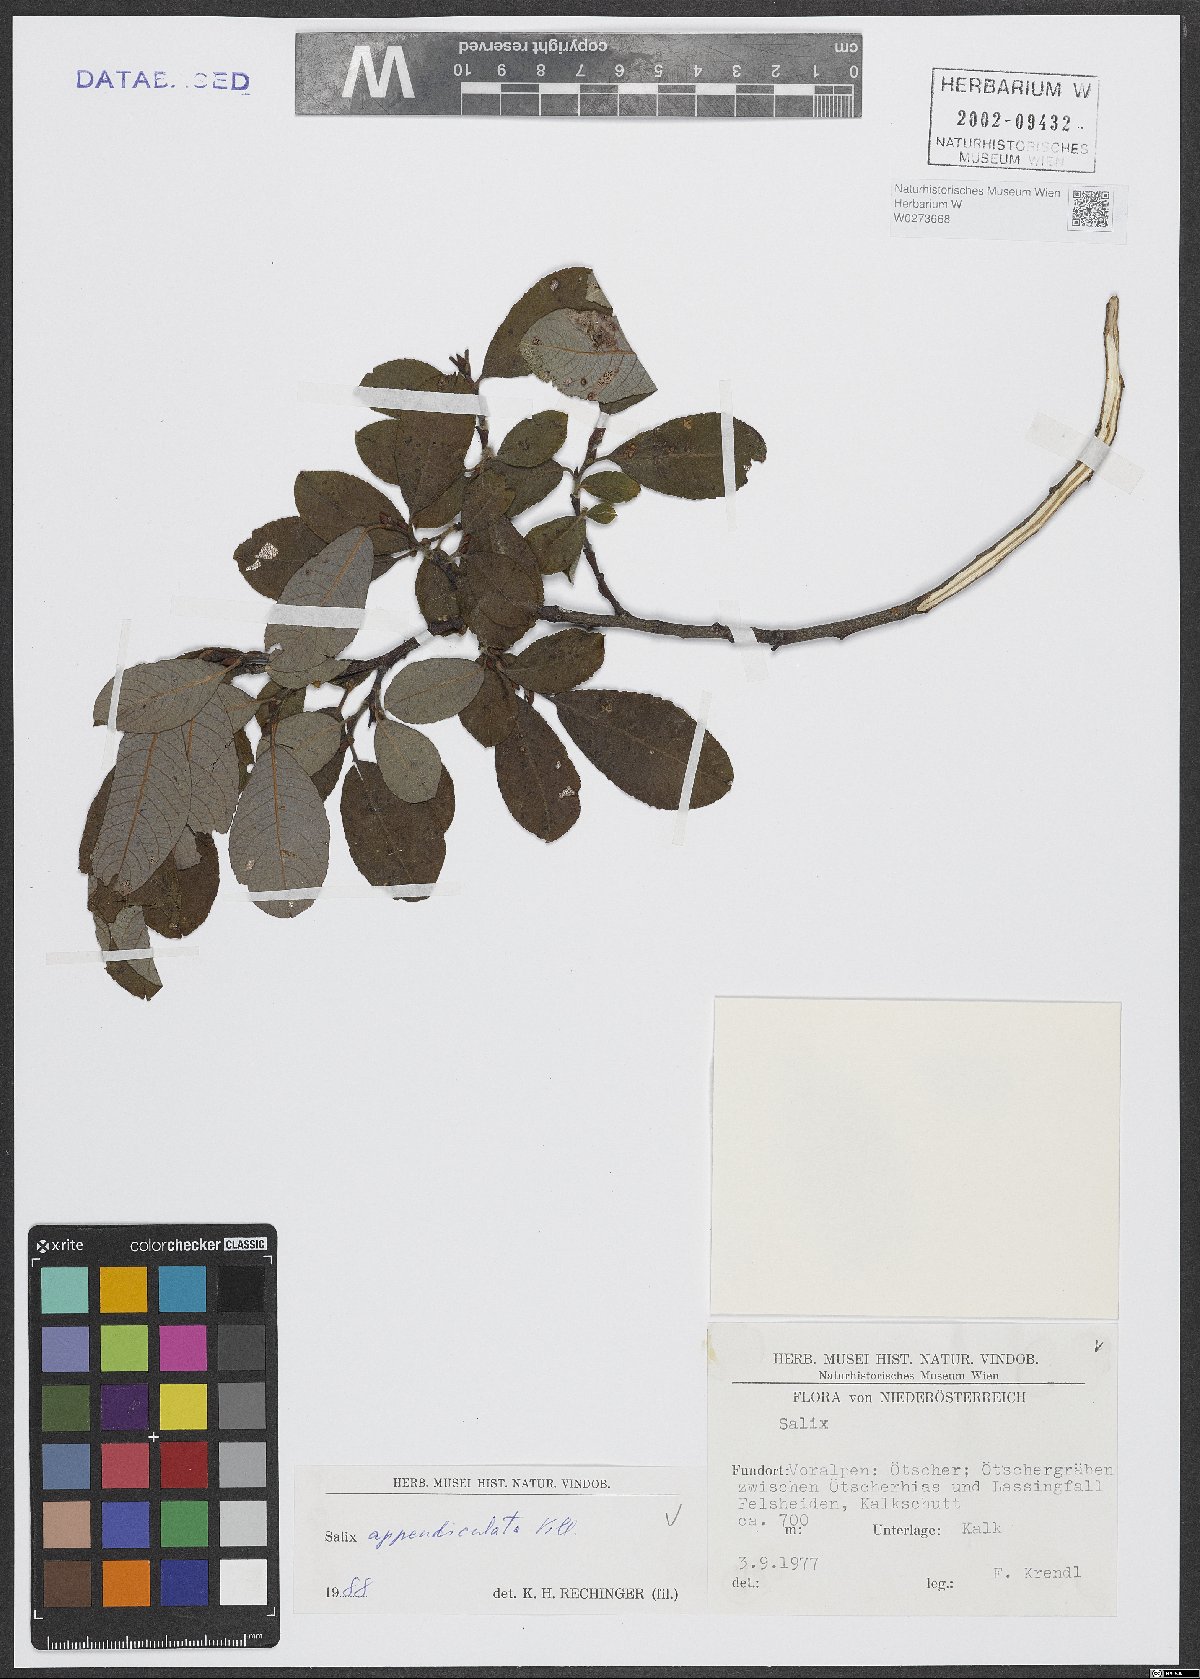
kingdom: Plantae
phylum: Tracheophyta
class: Magnoliopsida
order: Malpighiales
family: Salicaceae
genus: Salix
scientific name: Salix appendiculata
